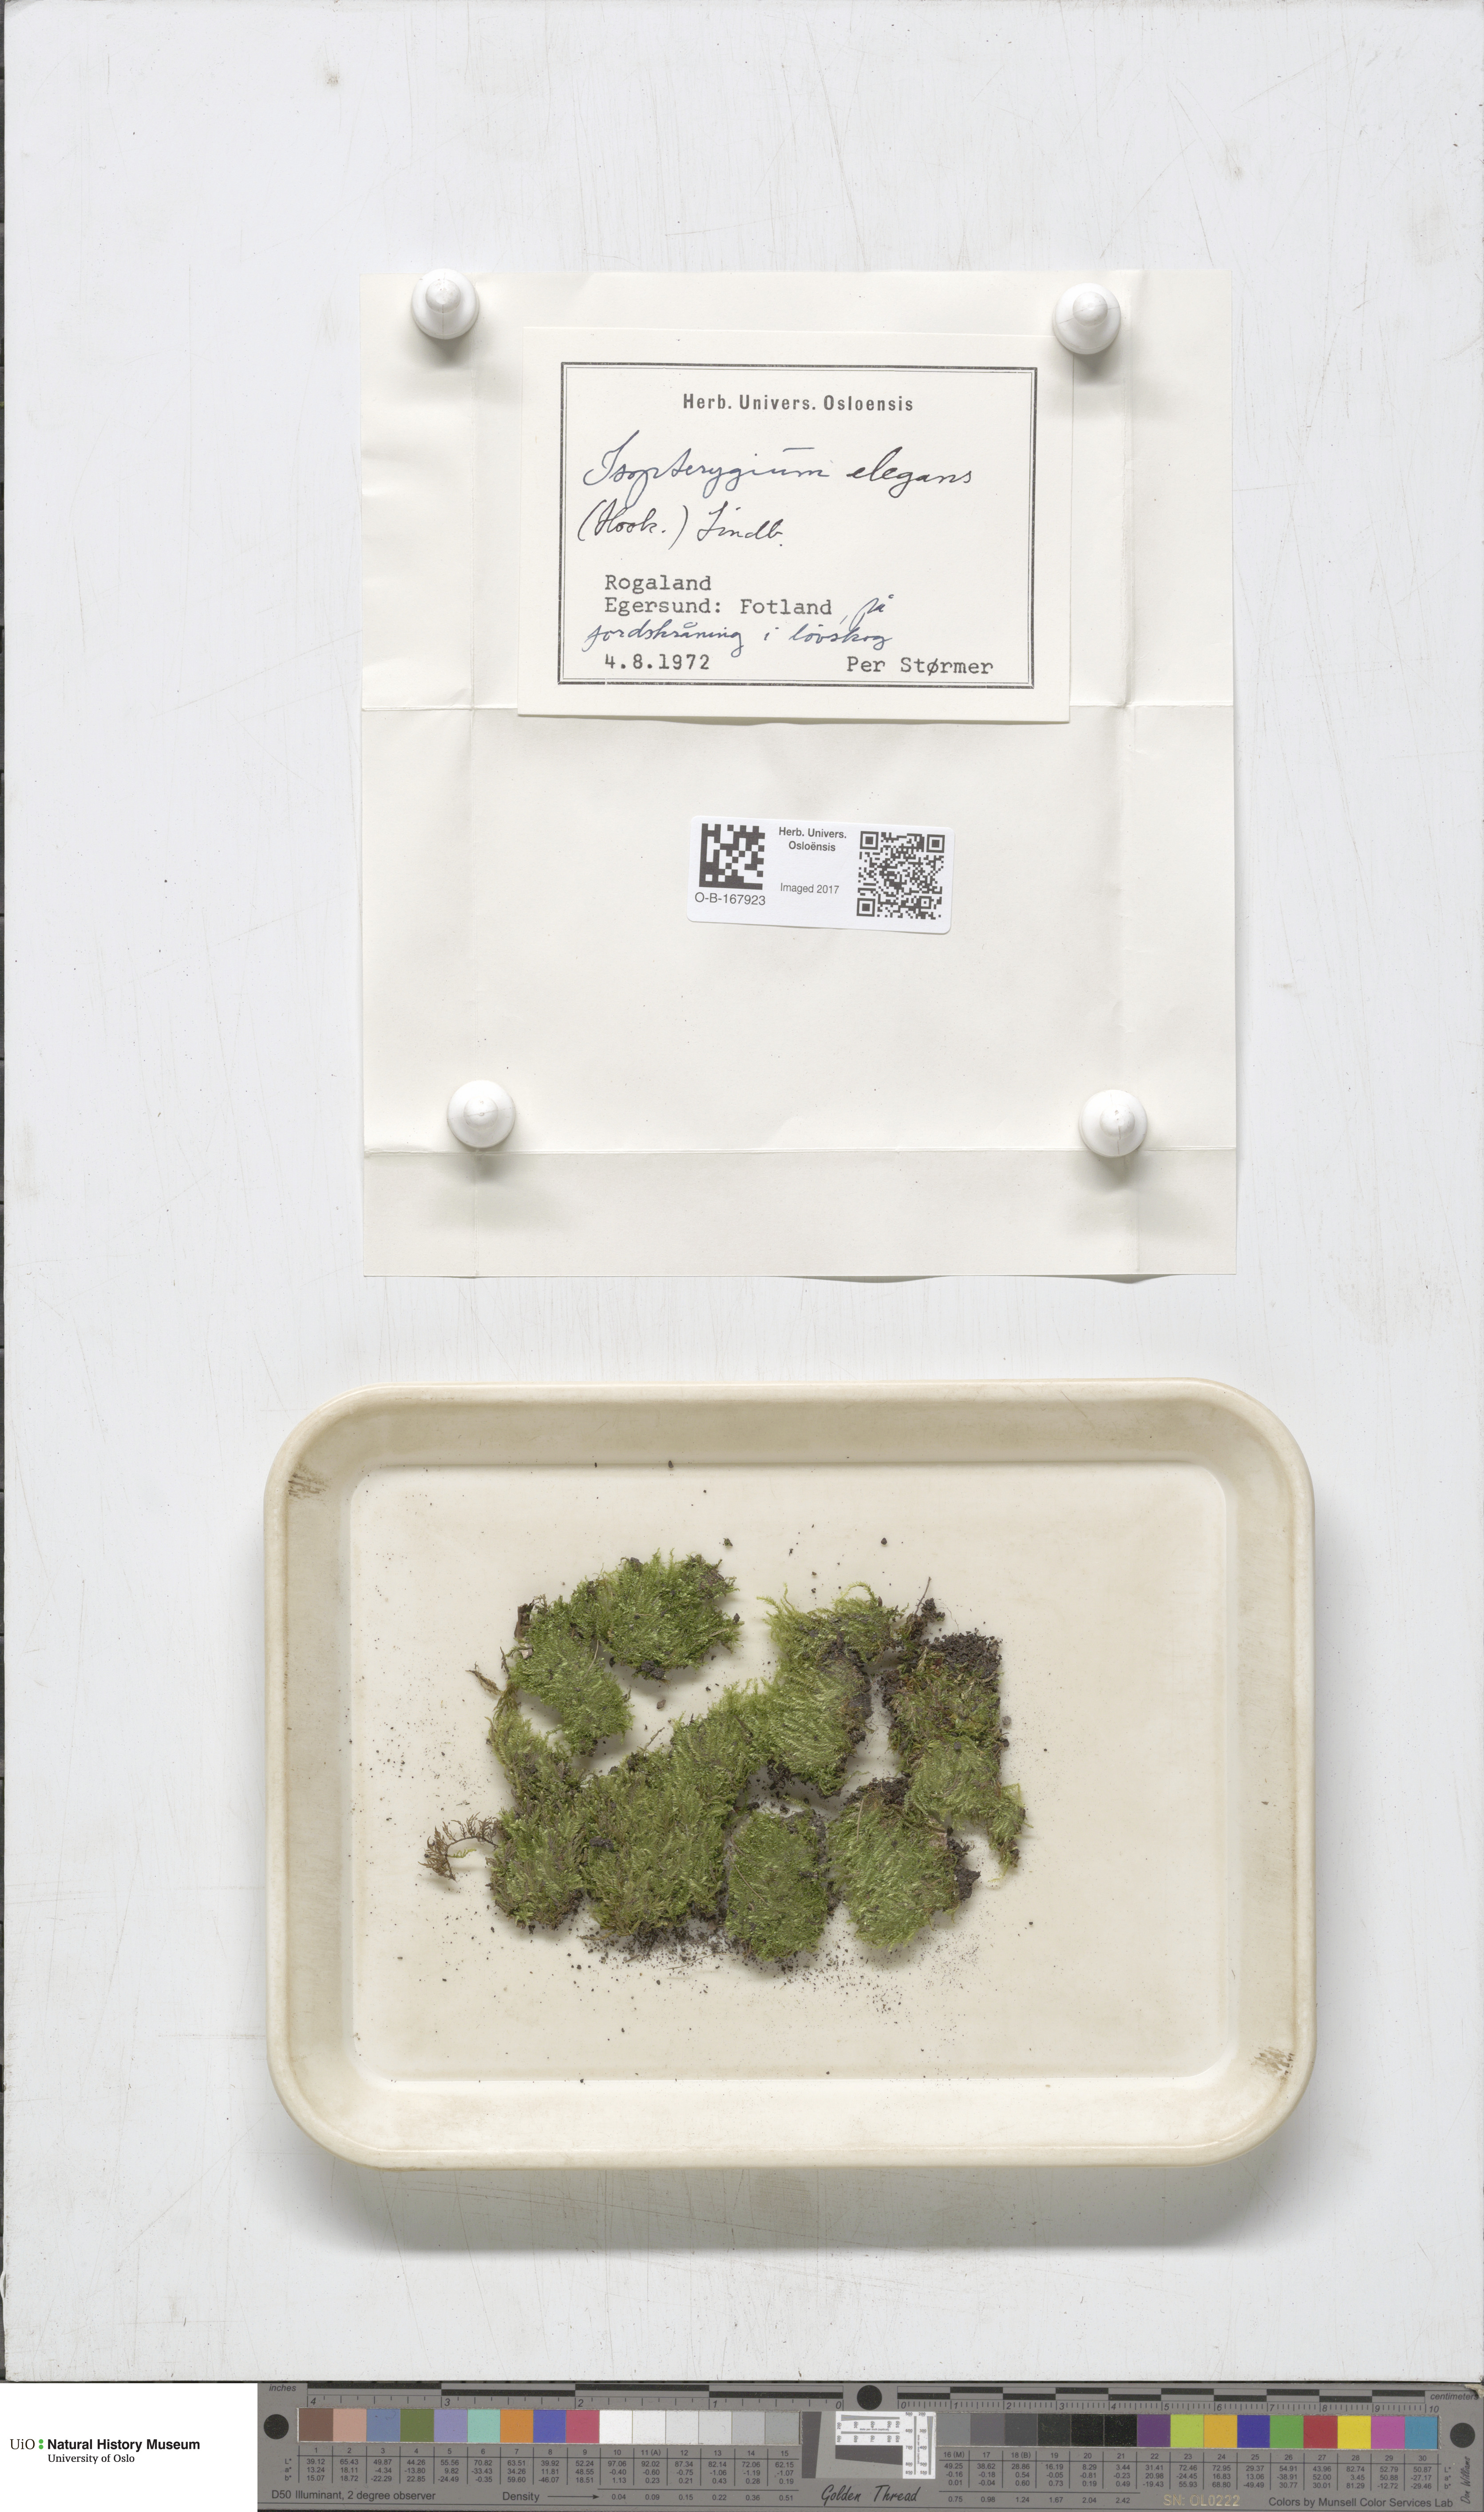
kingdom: Plantae
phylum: Bryophyta
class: Bryopsida
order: Hypnales
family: Plagiotheciaceae
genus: Pseudotaxiphyllum
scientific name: Pseudotaxiphyllum elegans
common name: Elegant silk moss
